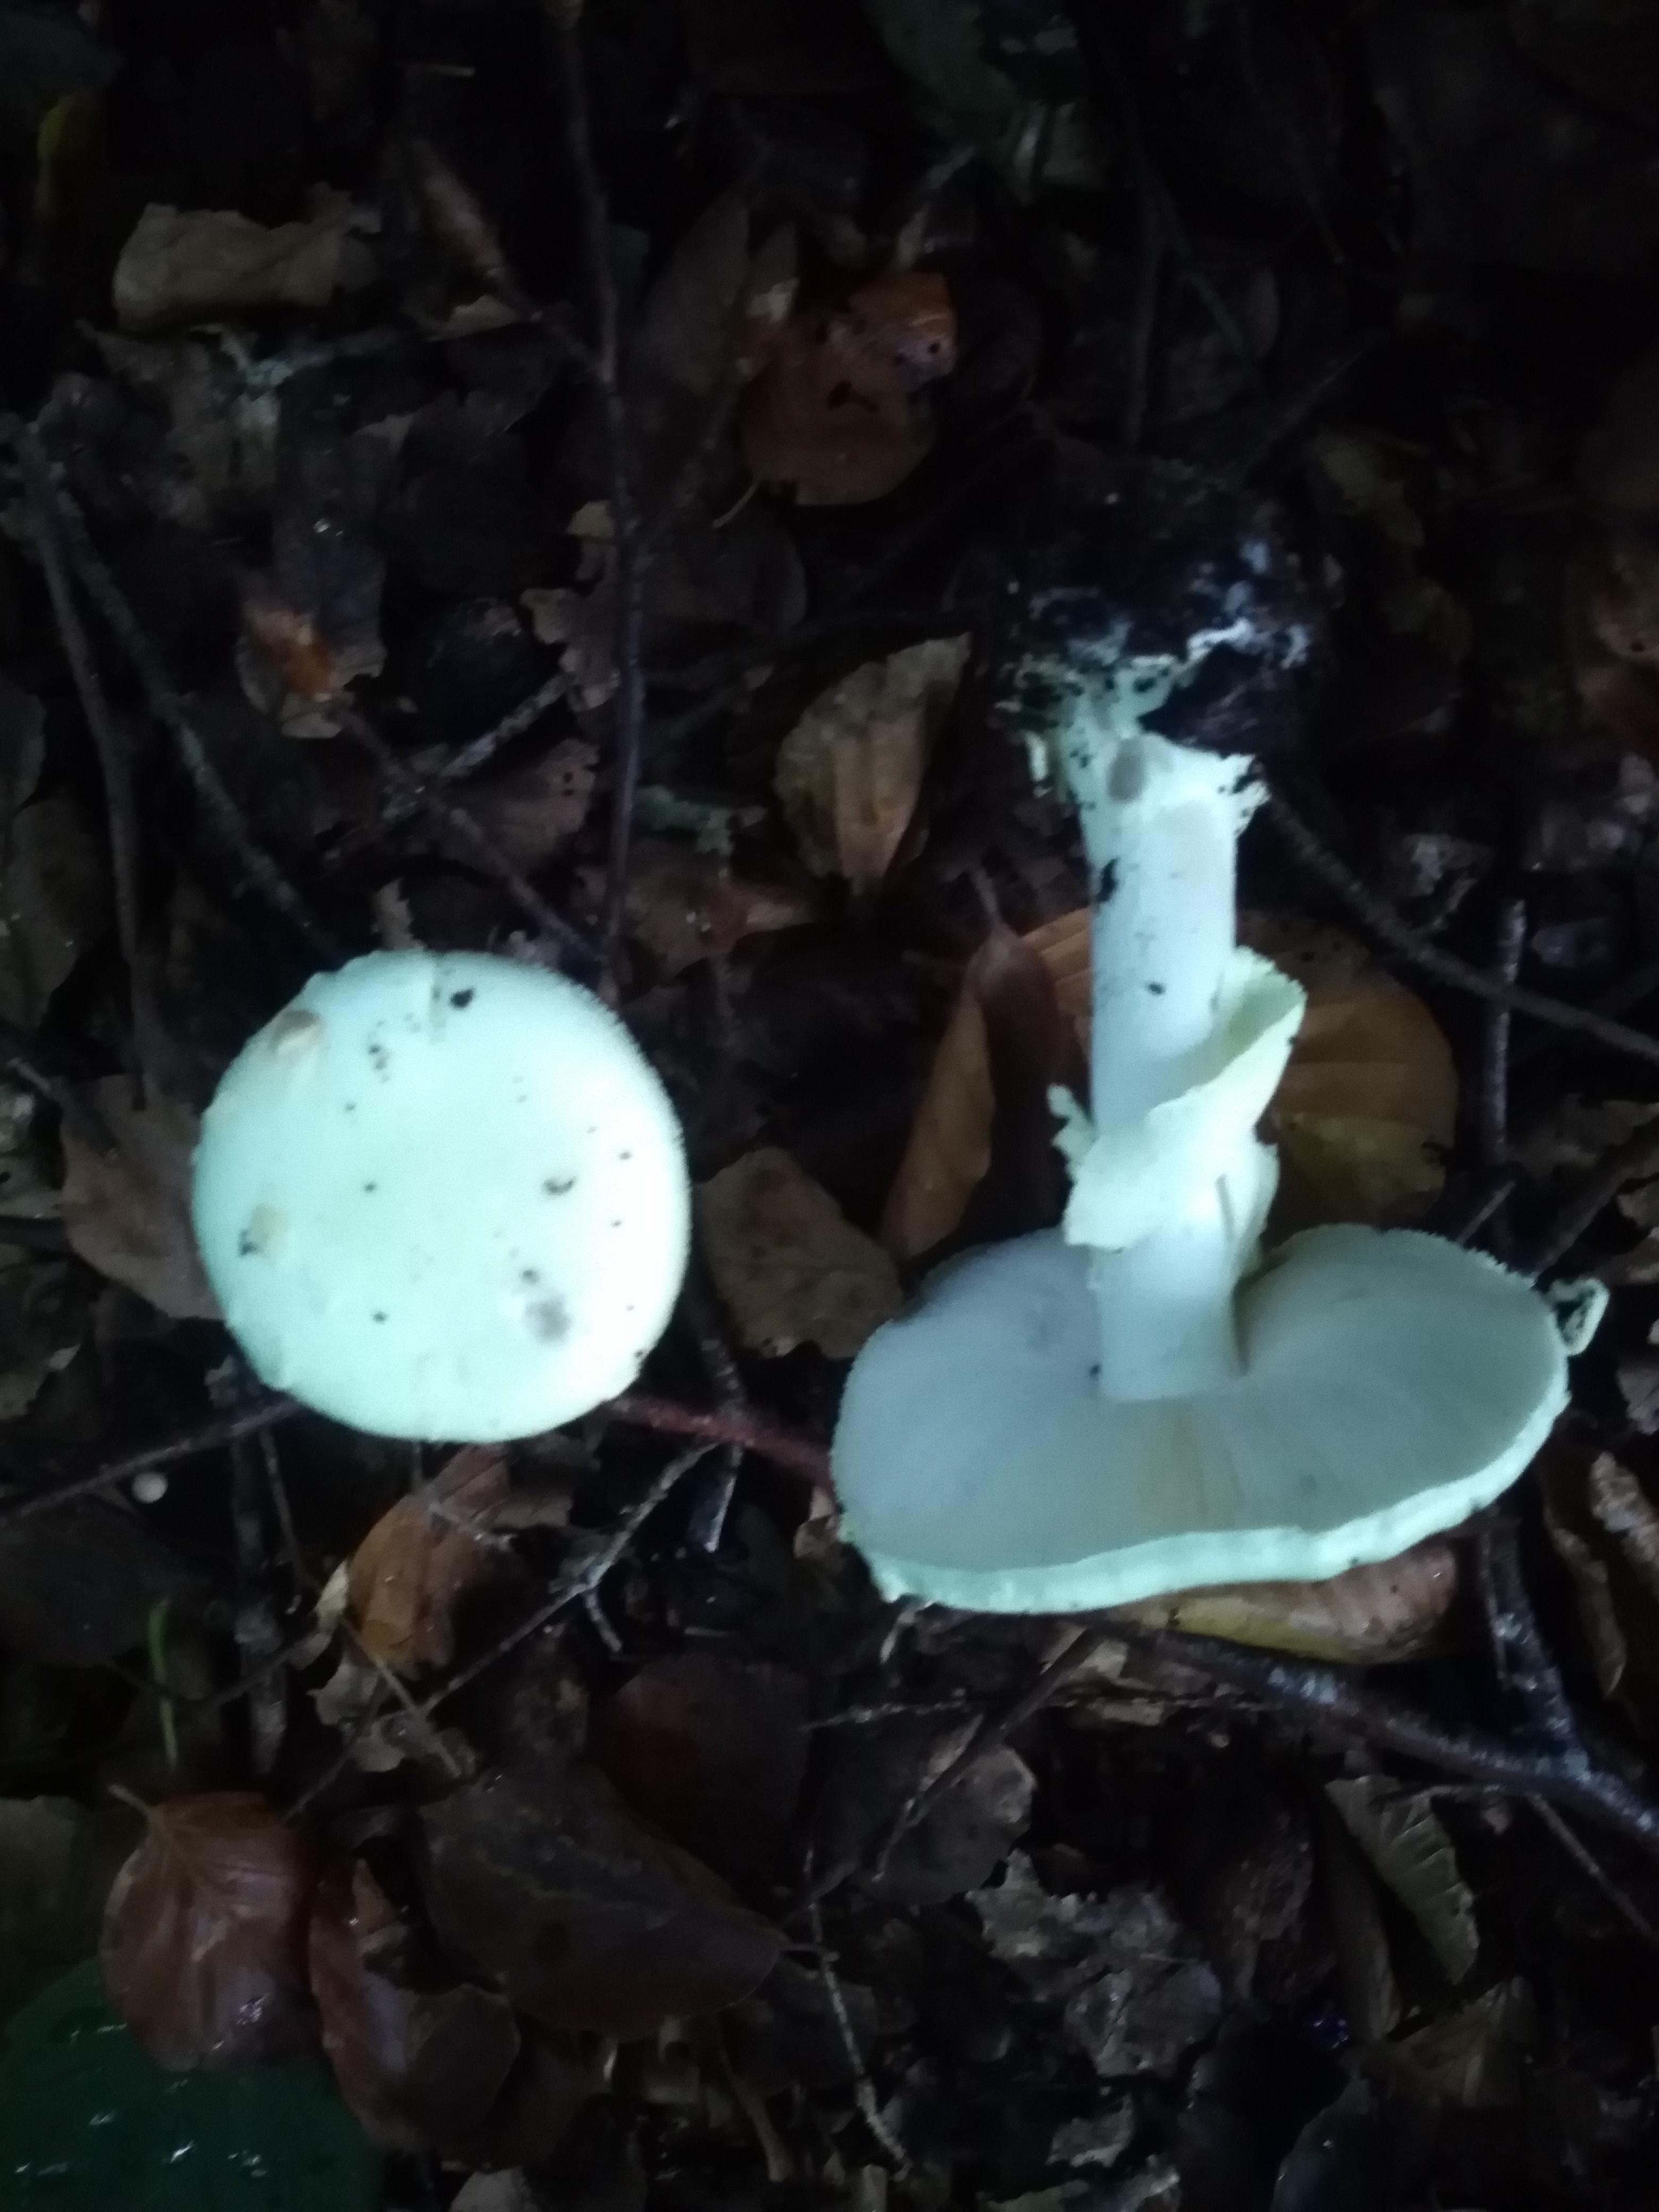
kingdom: Fungi
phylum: Basidiomycota
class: Agaricomycetes
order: Agaricales
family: Amanitaceae
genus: Amanita
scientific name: Amanita citrina
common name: kugleknoldet fluesvamp
